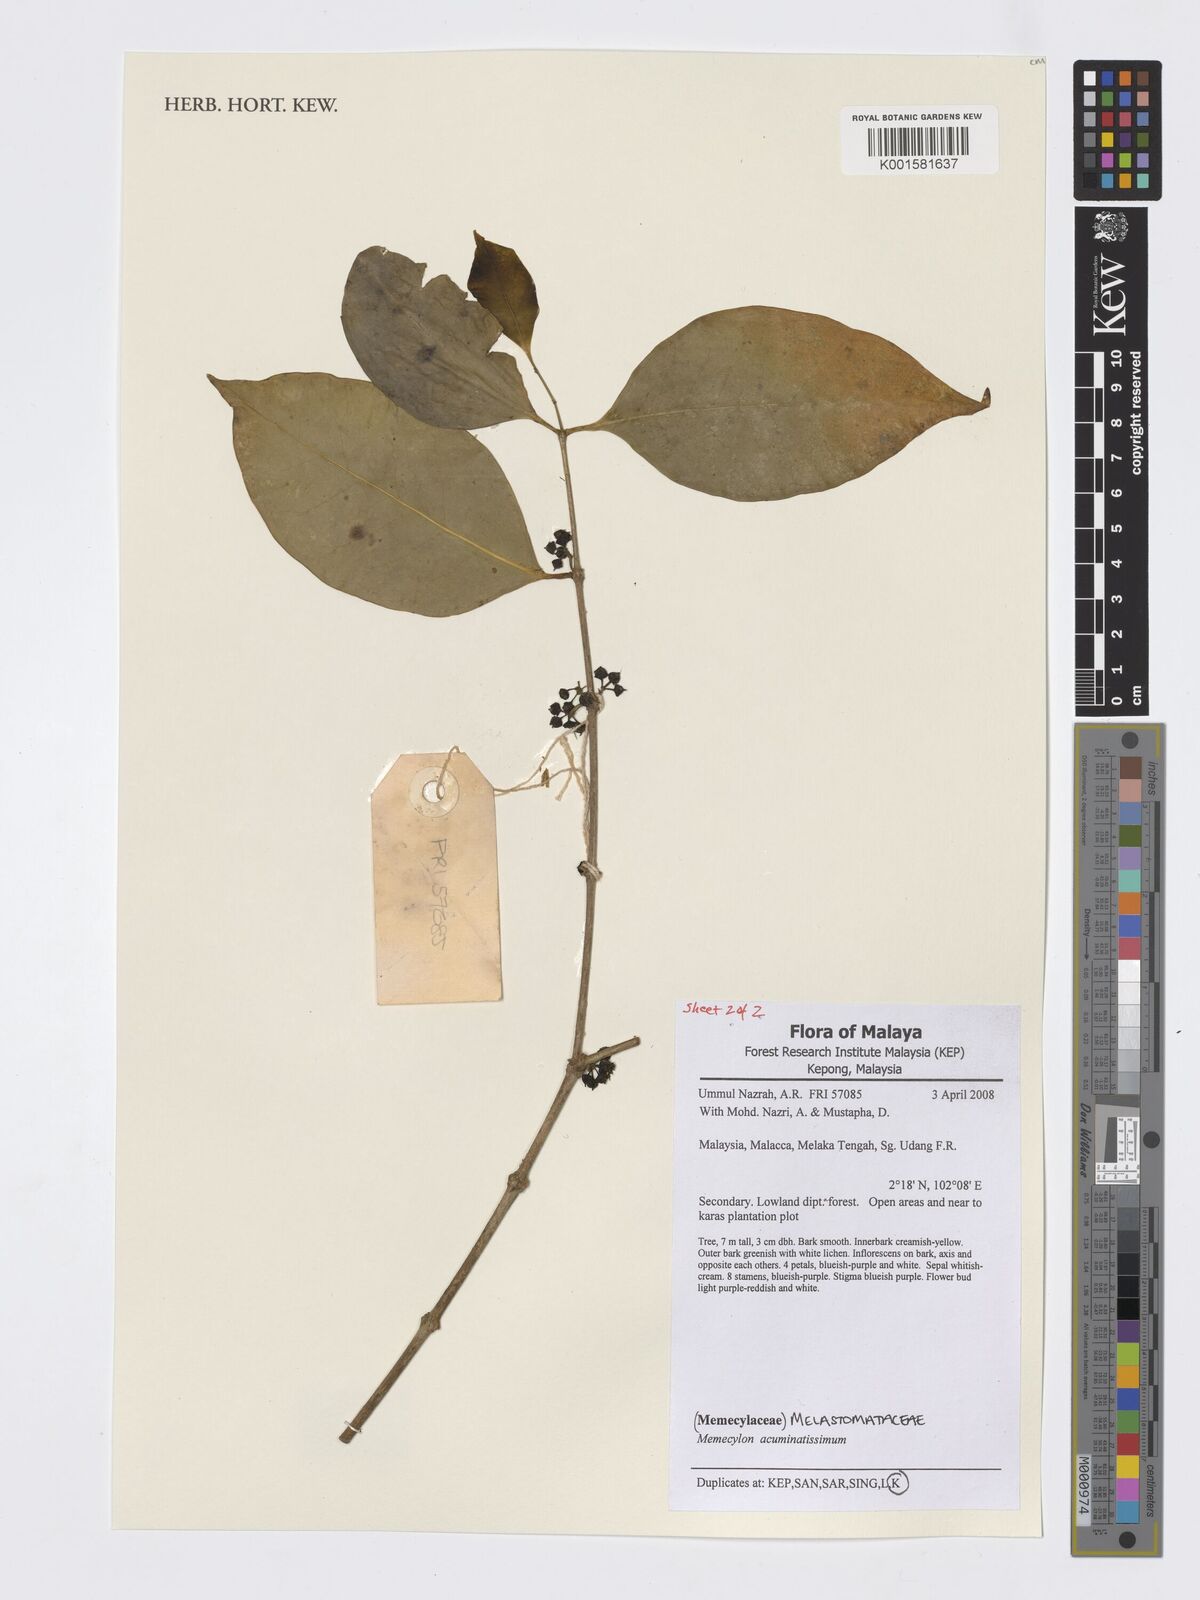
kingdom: Plantae
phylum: Tracheophyta
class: Magnoliopsida
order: Myrtales
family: Melastomataceae
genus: Memecylon
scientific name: Memecylon acuminatissimum
